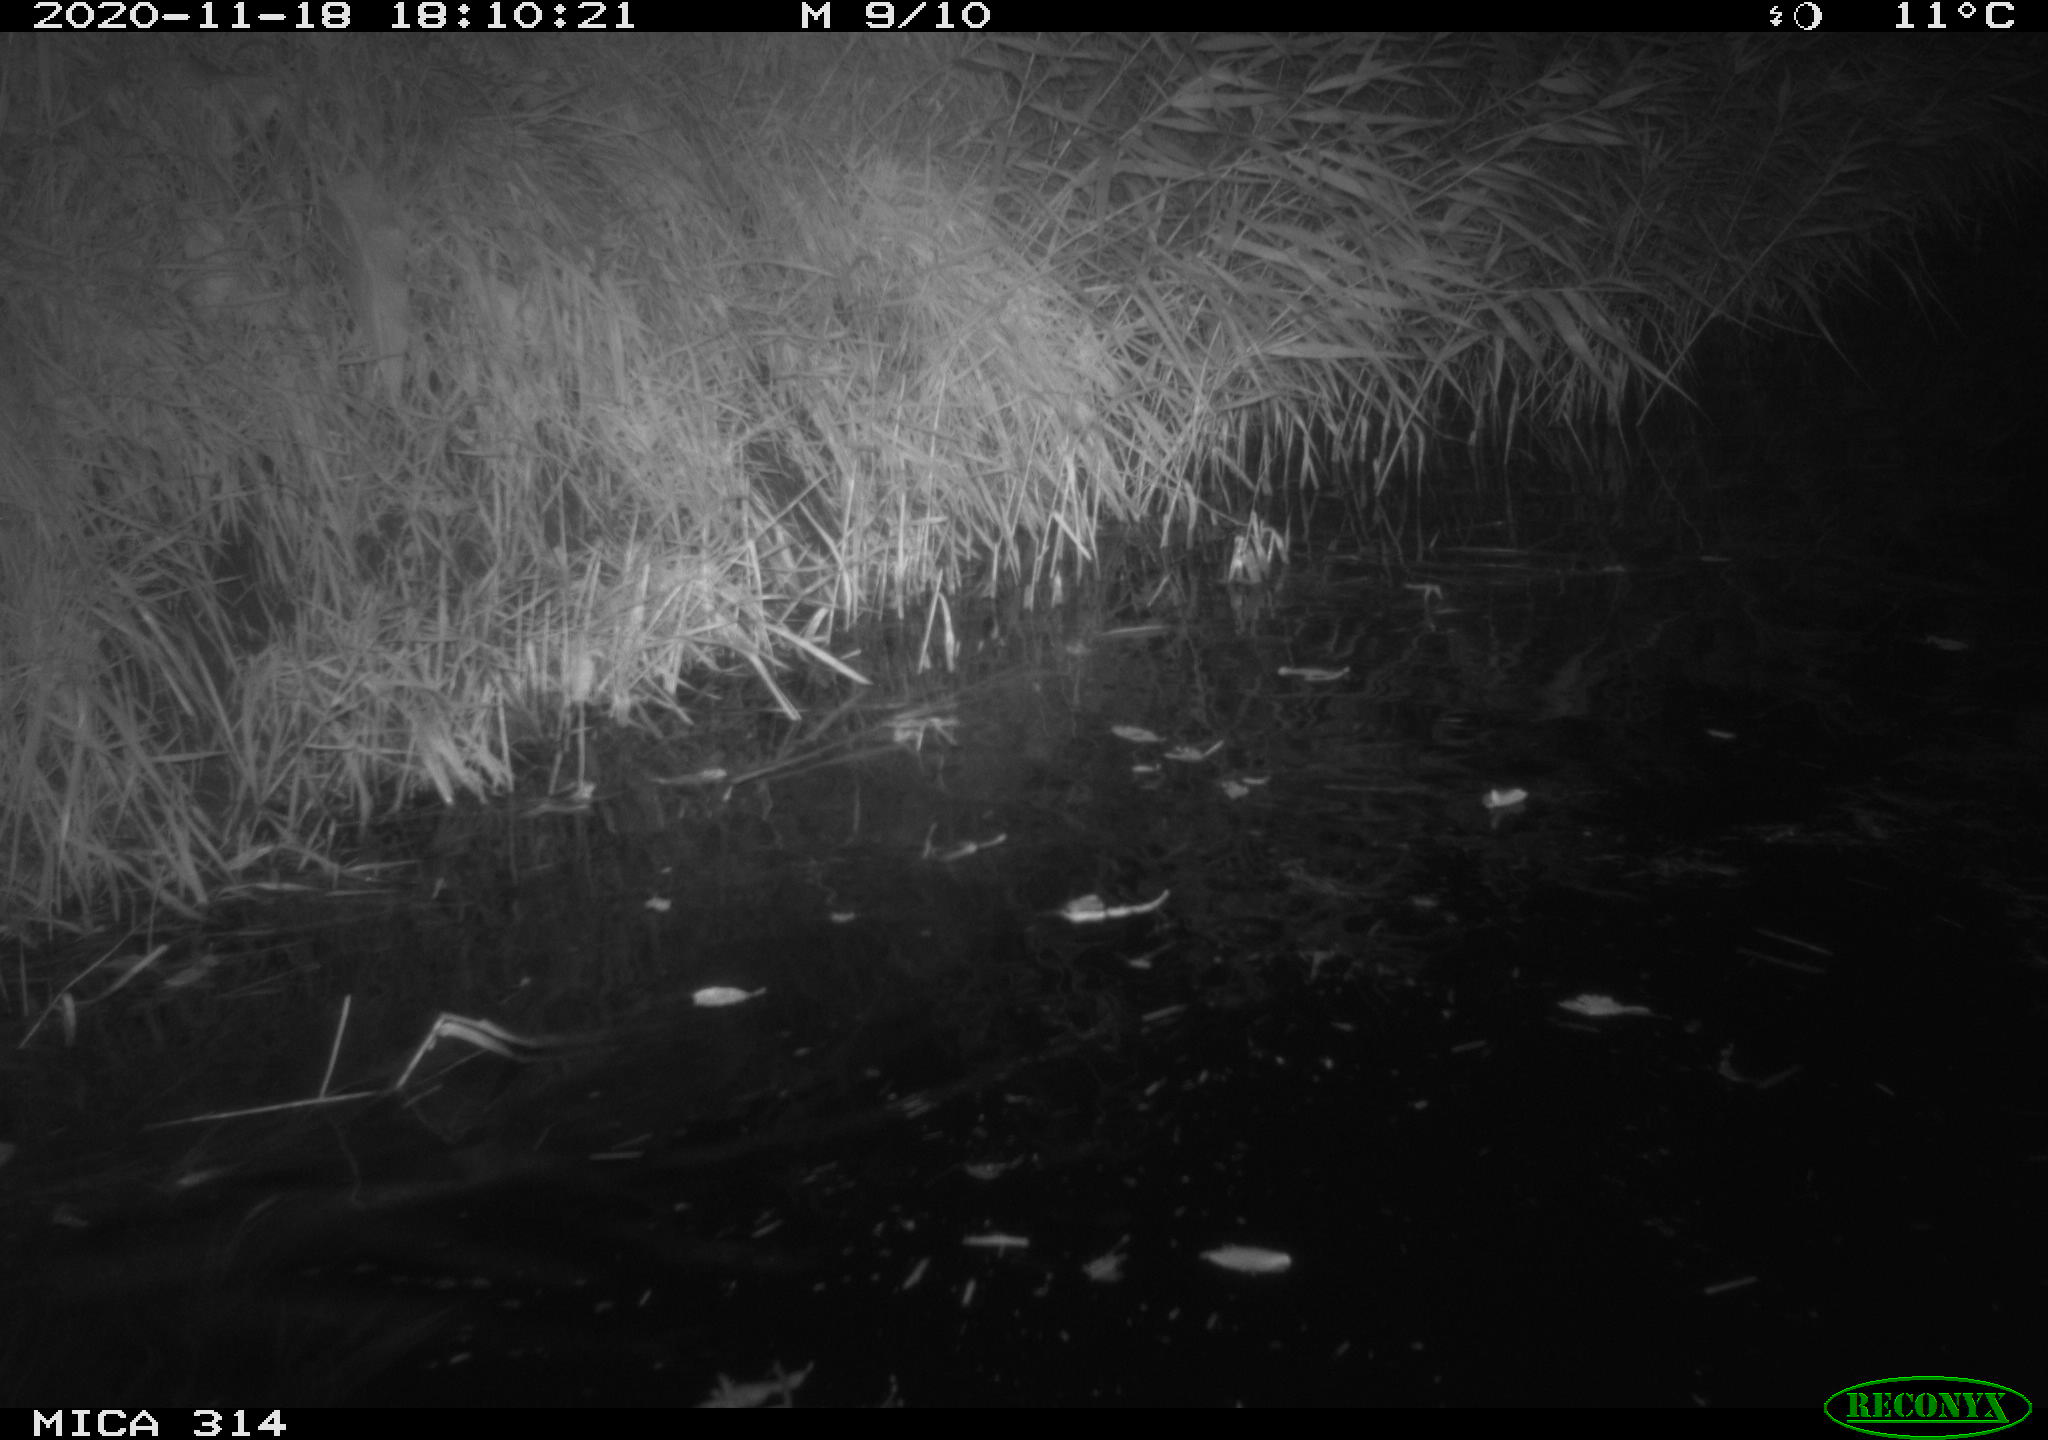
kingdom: Animalia
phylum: Chordata
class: Mammalia
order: Rodentia
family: Muridae
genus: Rattus
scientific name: Rattus norvegicus
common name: Brown rat
